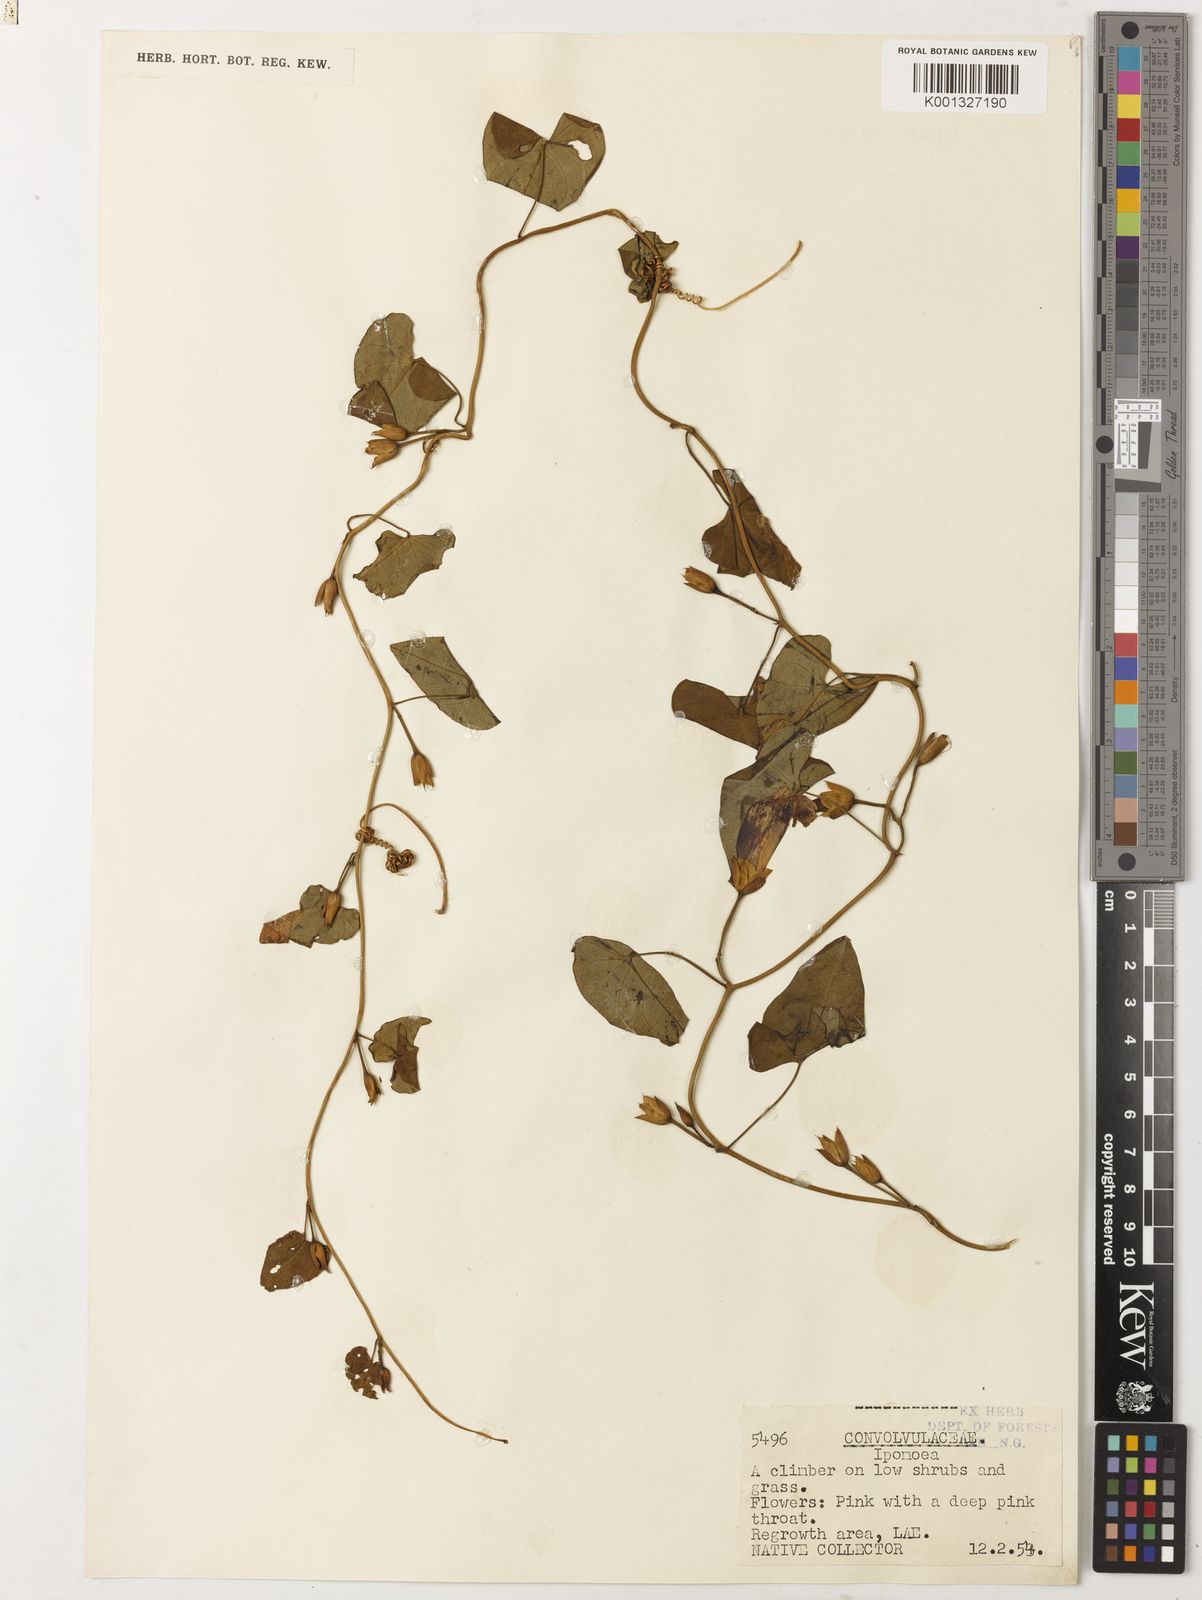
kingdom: Plantae
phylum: Tracheophyta
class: Magnoliopsida
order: Solanales
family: Convolvulaceae
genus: Ipomoea
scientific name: Ipomoea
